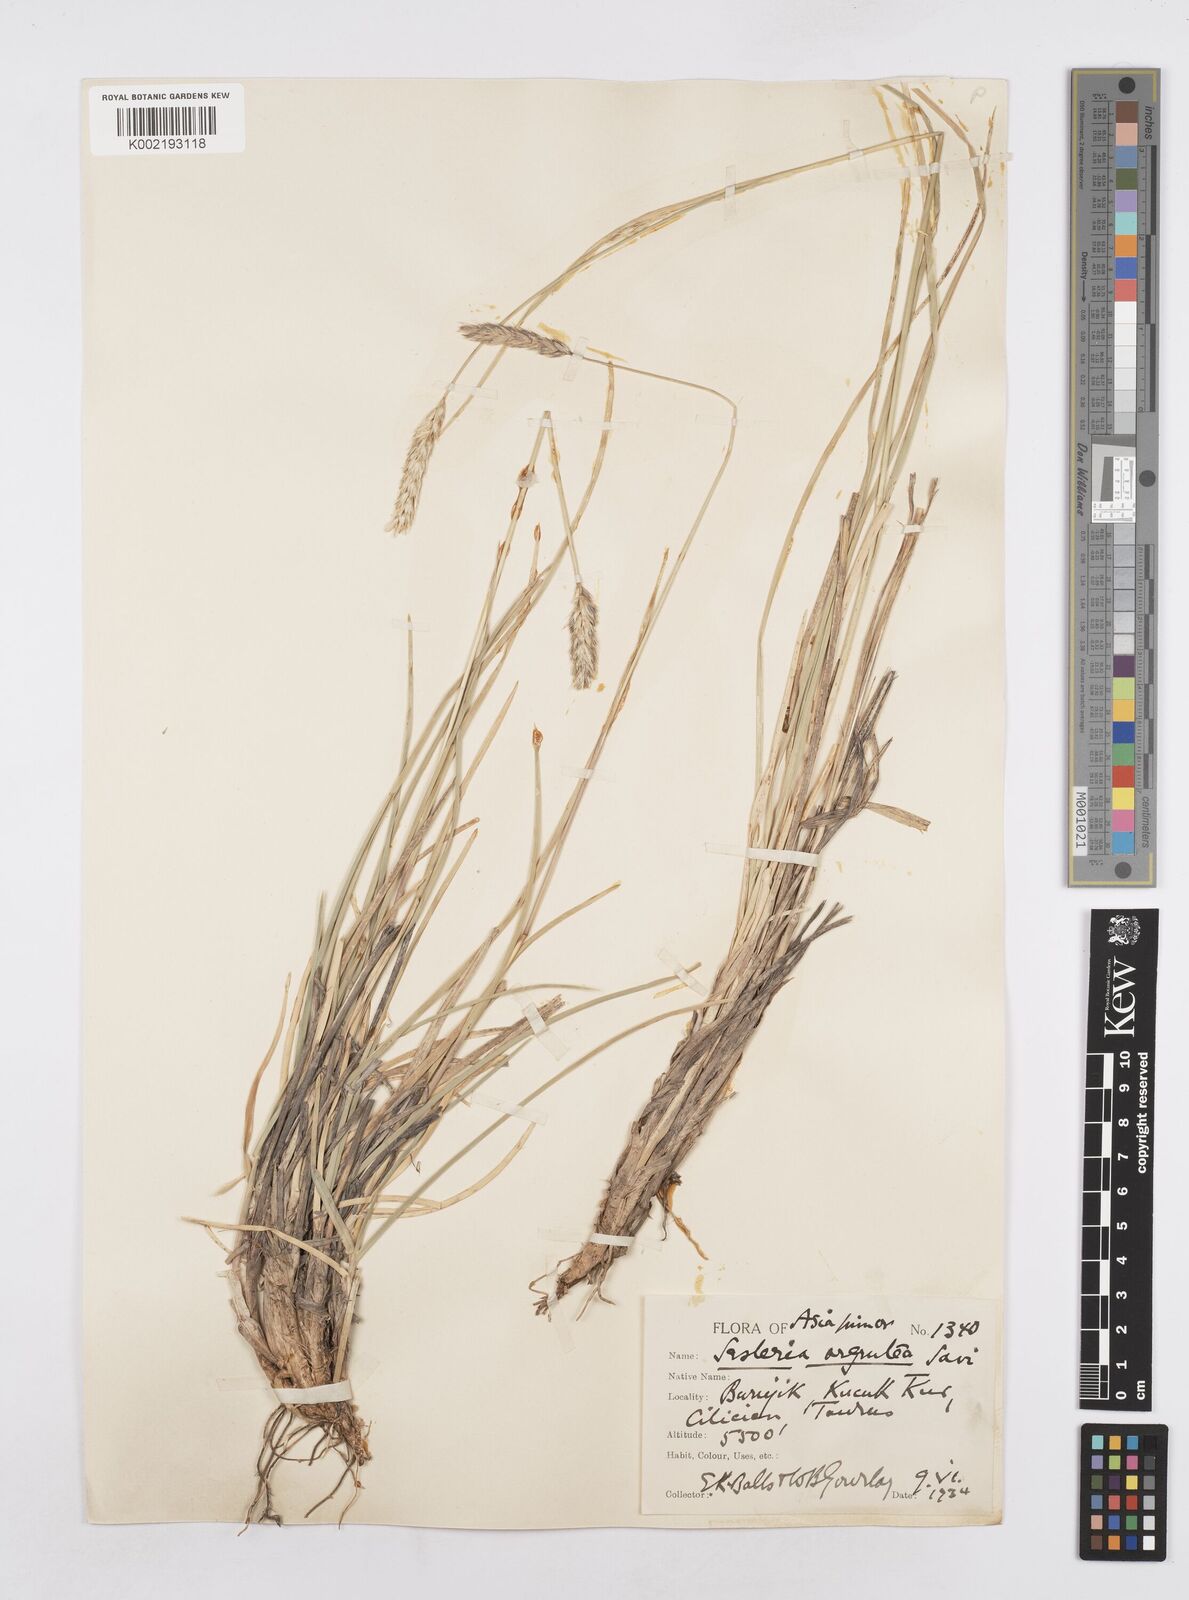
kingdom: Plantae
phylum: Tracheophyta
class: Liliopsida
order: Poales
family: Poaceae
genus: Sesleria
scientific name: Sesleria argentea
